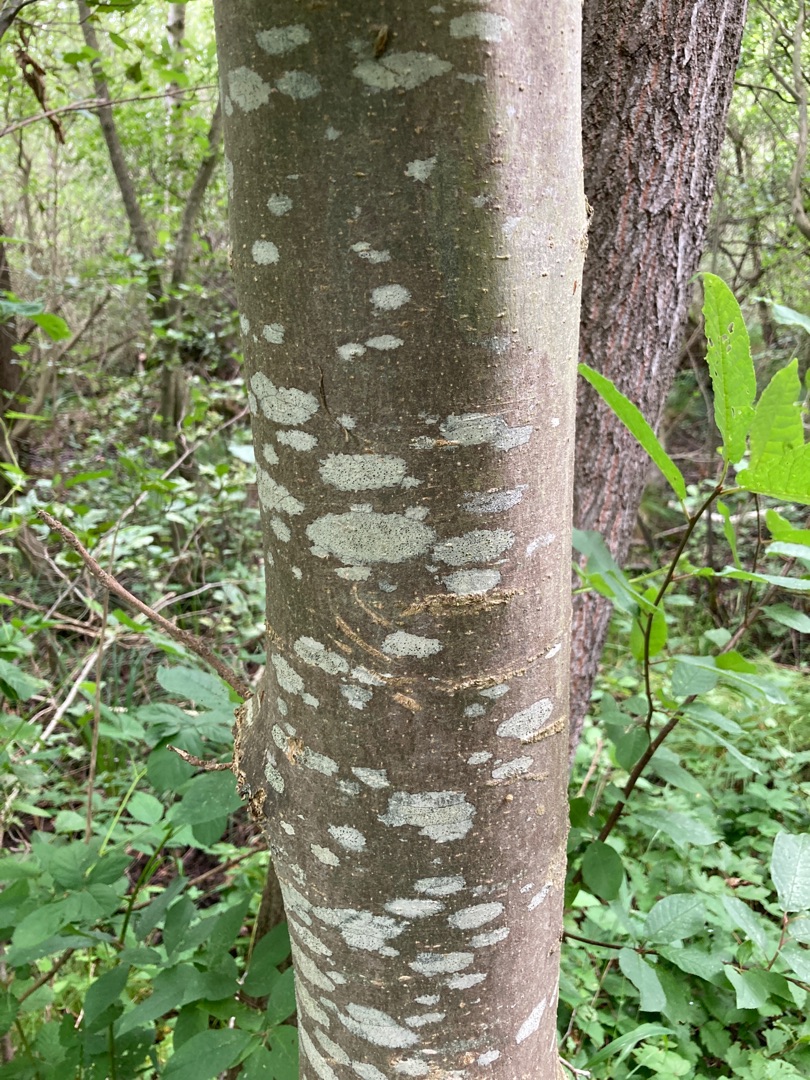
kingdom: Fungi
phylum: Ascomycota
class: Lecanoromycetes
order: Lecanorales
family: Lecanoraceae
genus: Lecidella
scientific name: Lecidella elaeochroma
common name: Grågrøn skivelav
